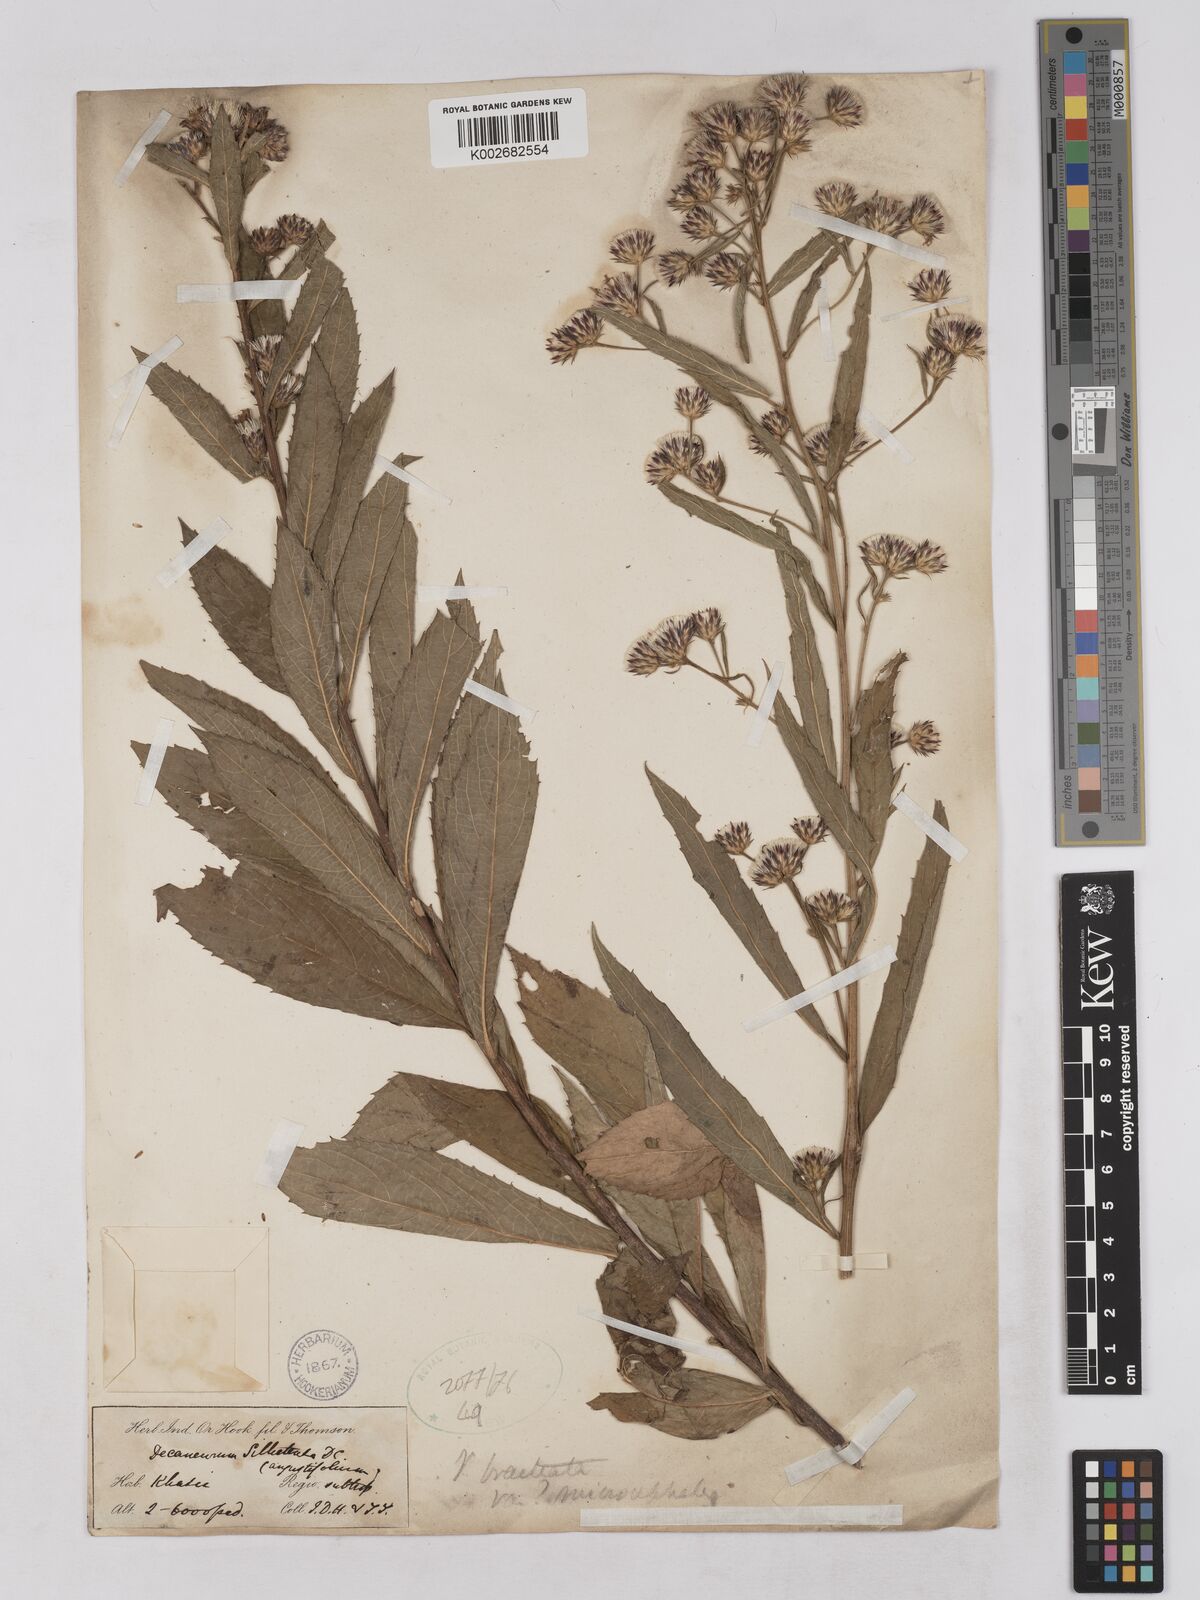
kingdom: Plantae
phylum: Tracheophyta
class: Magnoliopsida
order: Asterales
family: Asteraceae
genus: Acilepis
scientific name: Acilepis silhetensis
